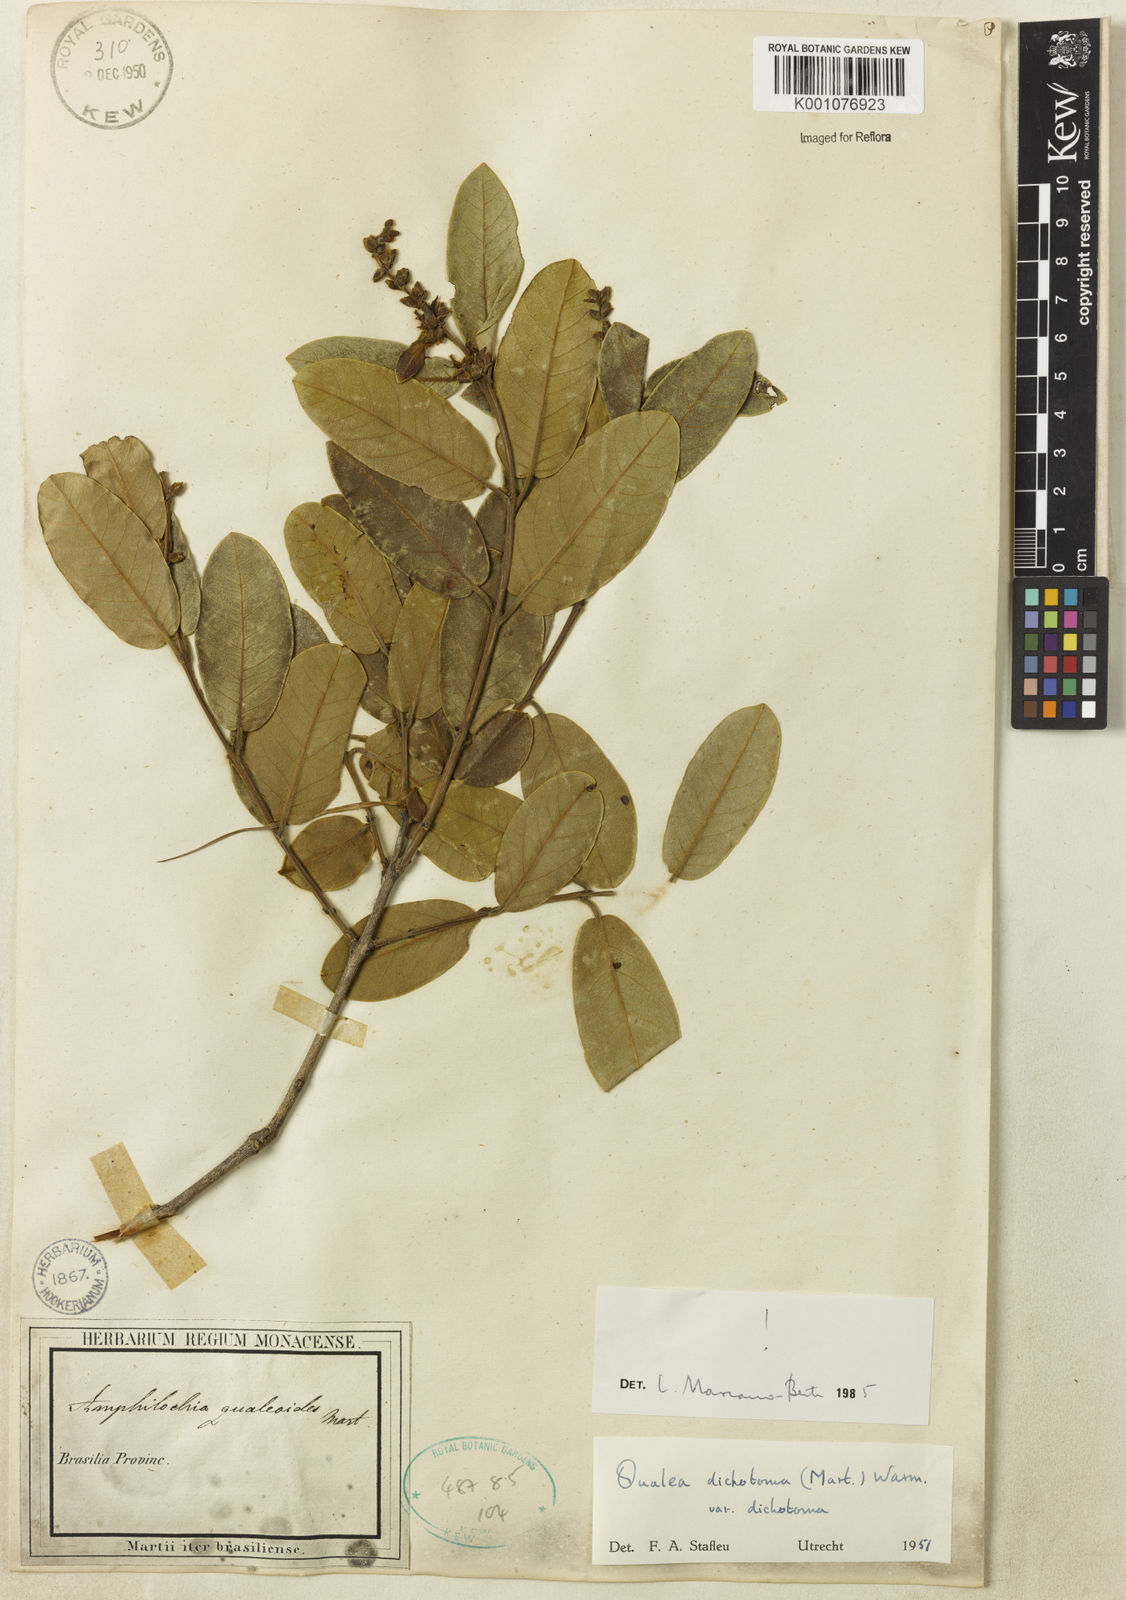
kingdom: Plantae
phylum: Tracheophyta
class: Magnoliopsida
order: Myrtales
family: Vochysiaceae
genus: Qualea
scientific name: Qualea
